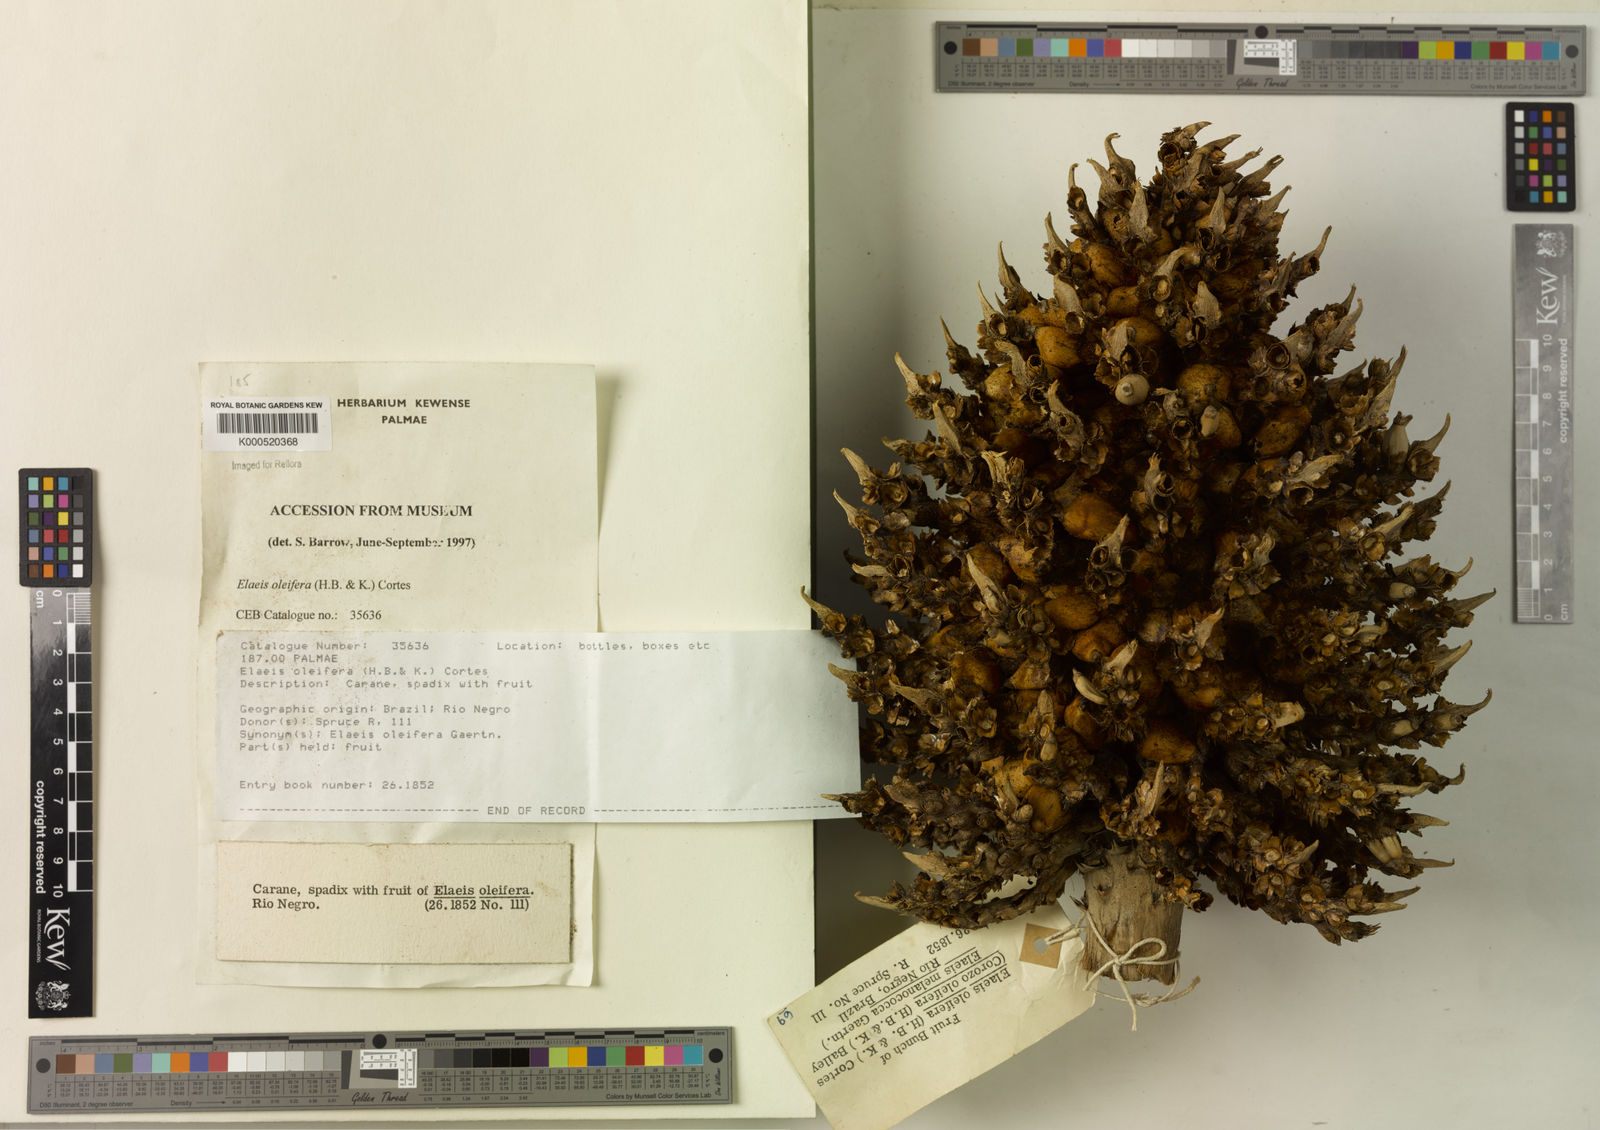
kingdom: Plantae
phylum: Tracheophyta
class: Liliopsida
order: Arecales
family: Arecaceae
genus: Elaeis
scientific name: Elaeis oleifera
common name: American oil palm
